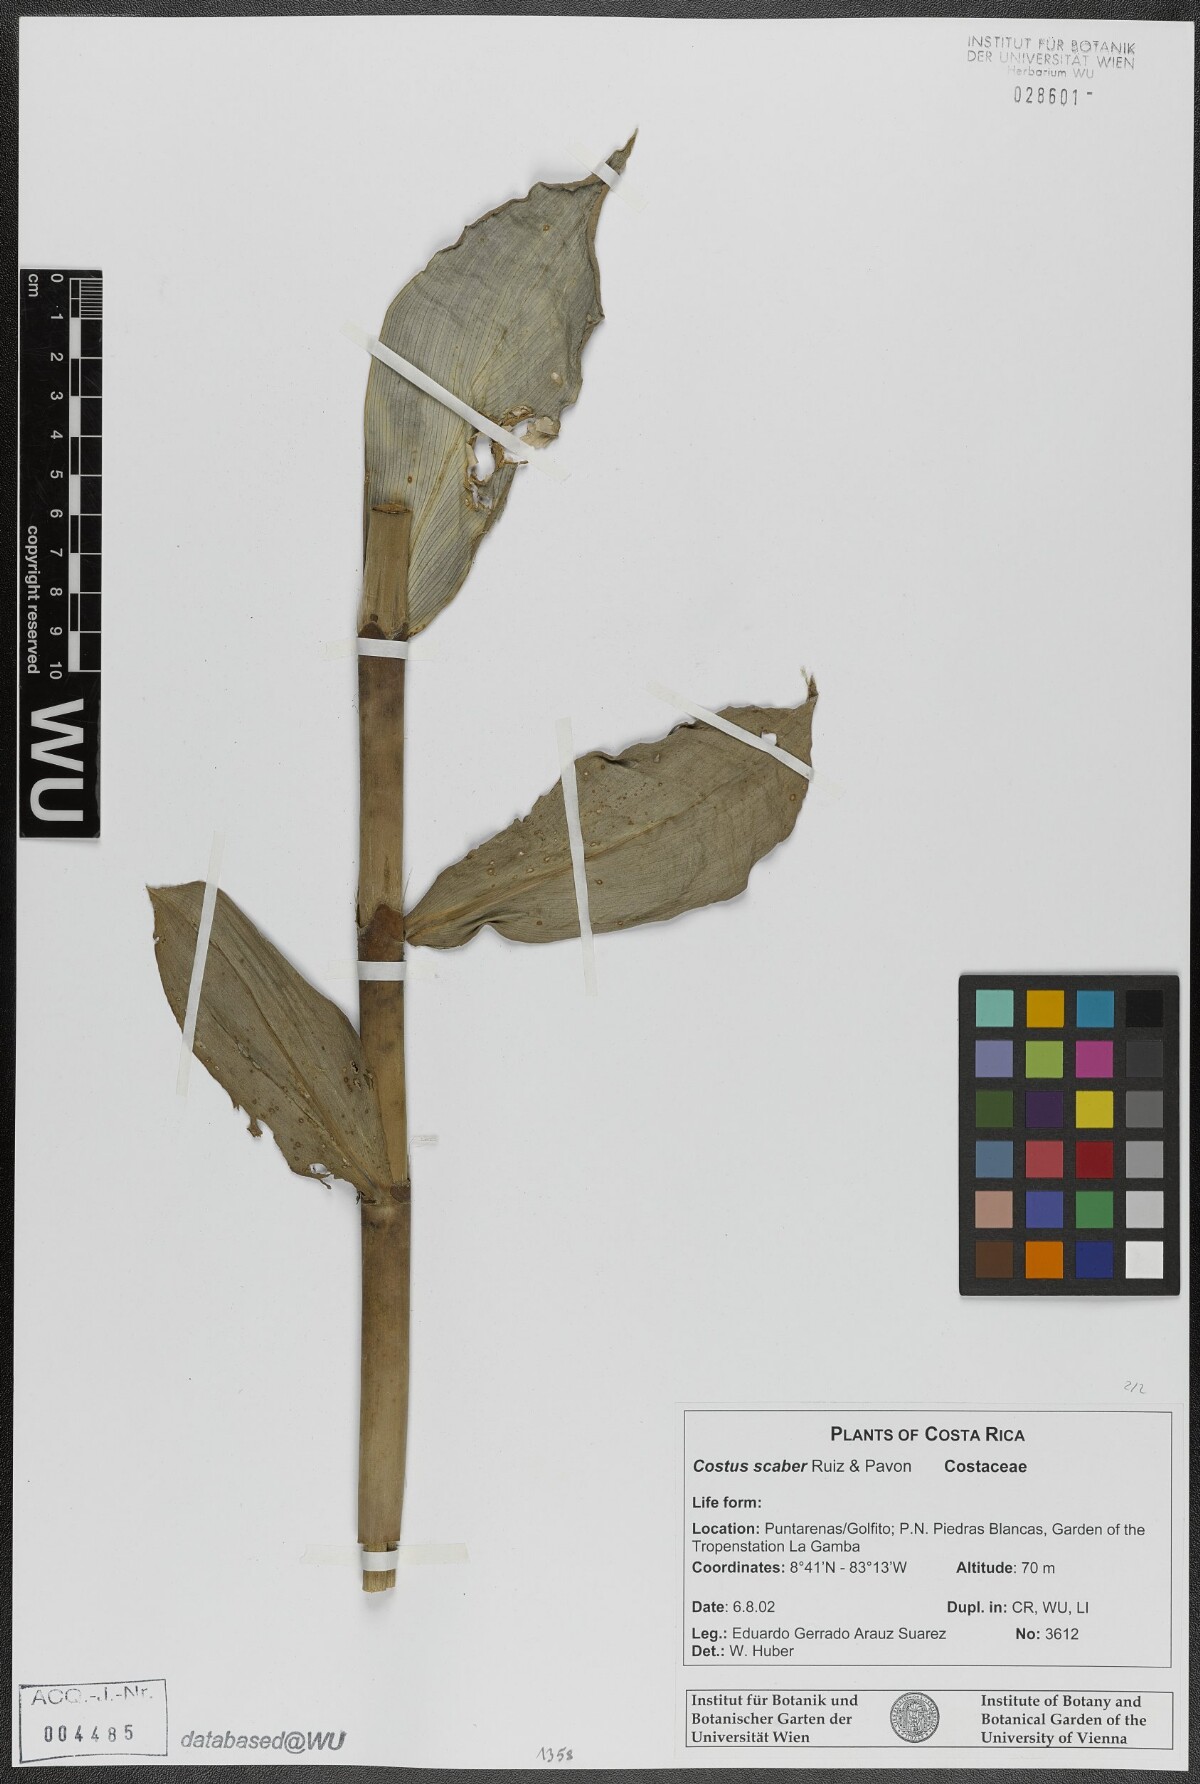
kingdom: Plantae
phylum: Tracheophyta
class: Liliopsida
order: Zingiberales
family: Costaceae
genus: Costus
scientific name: Costus scaber
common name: Spiral head ginger
